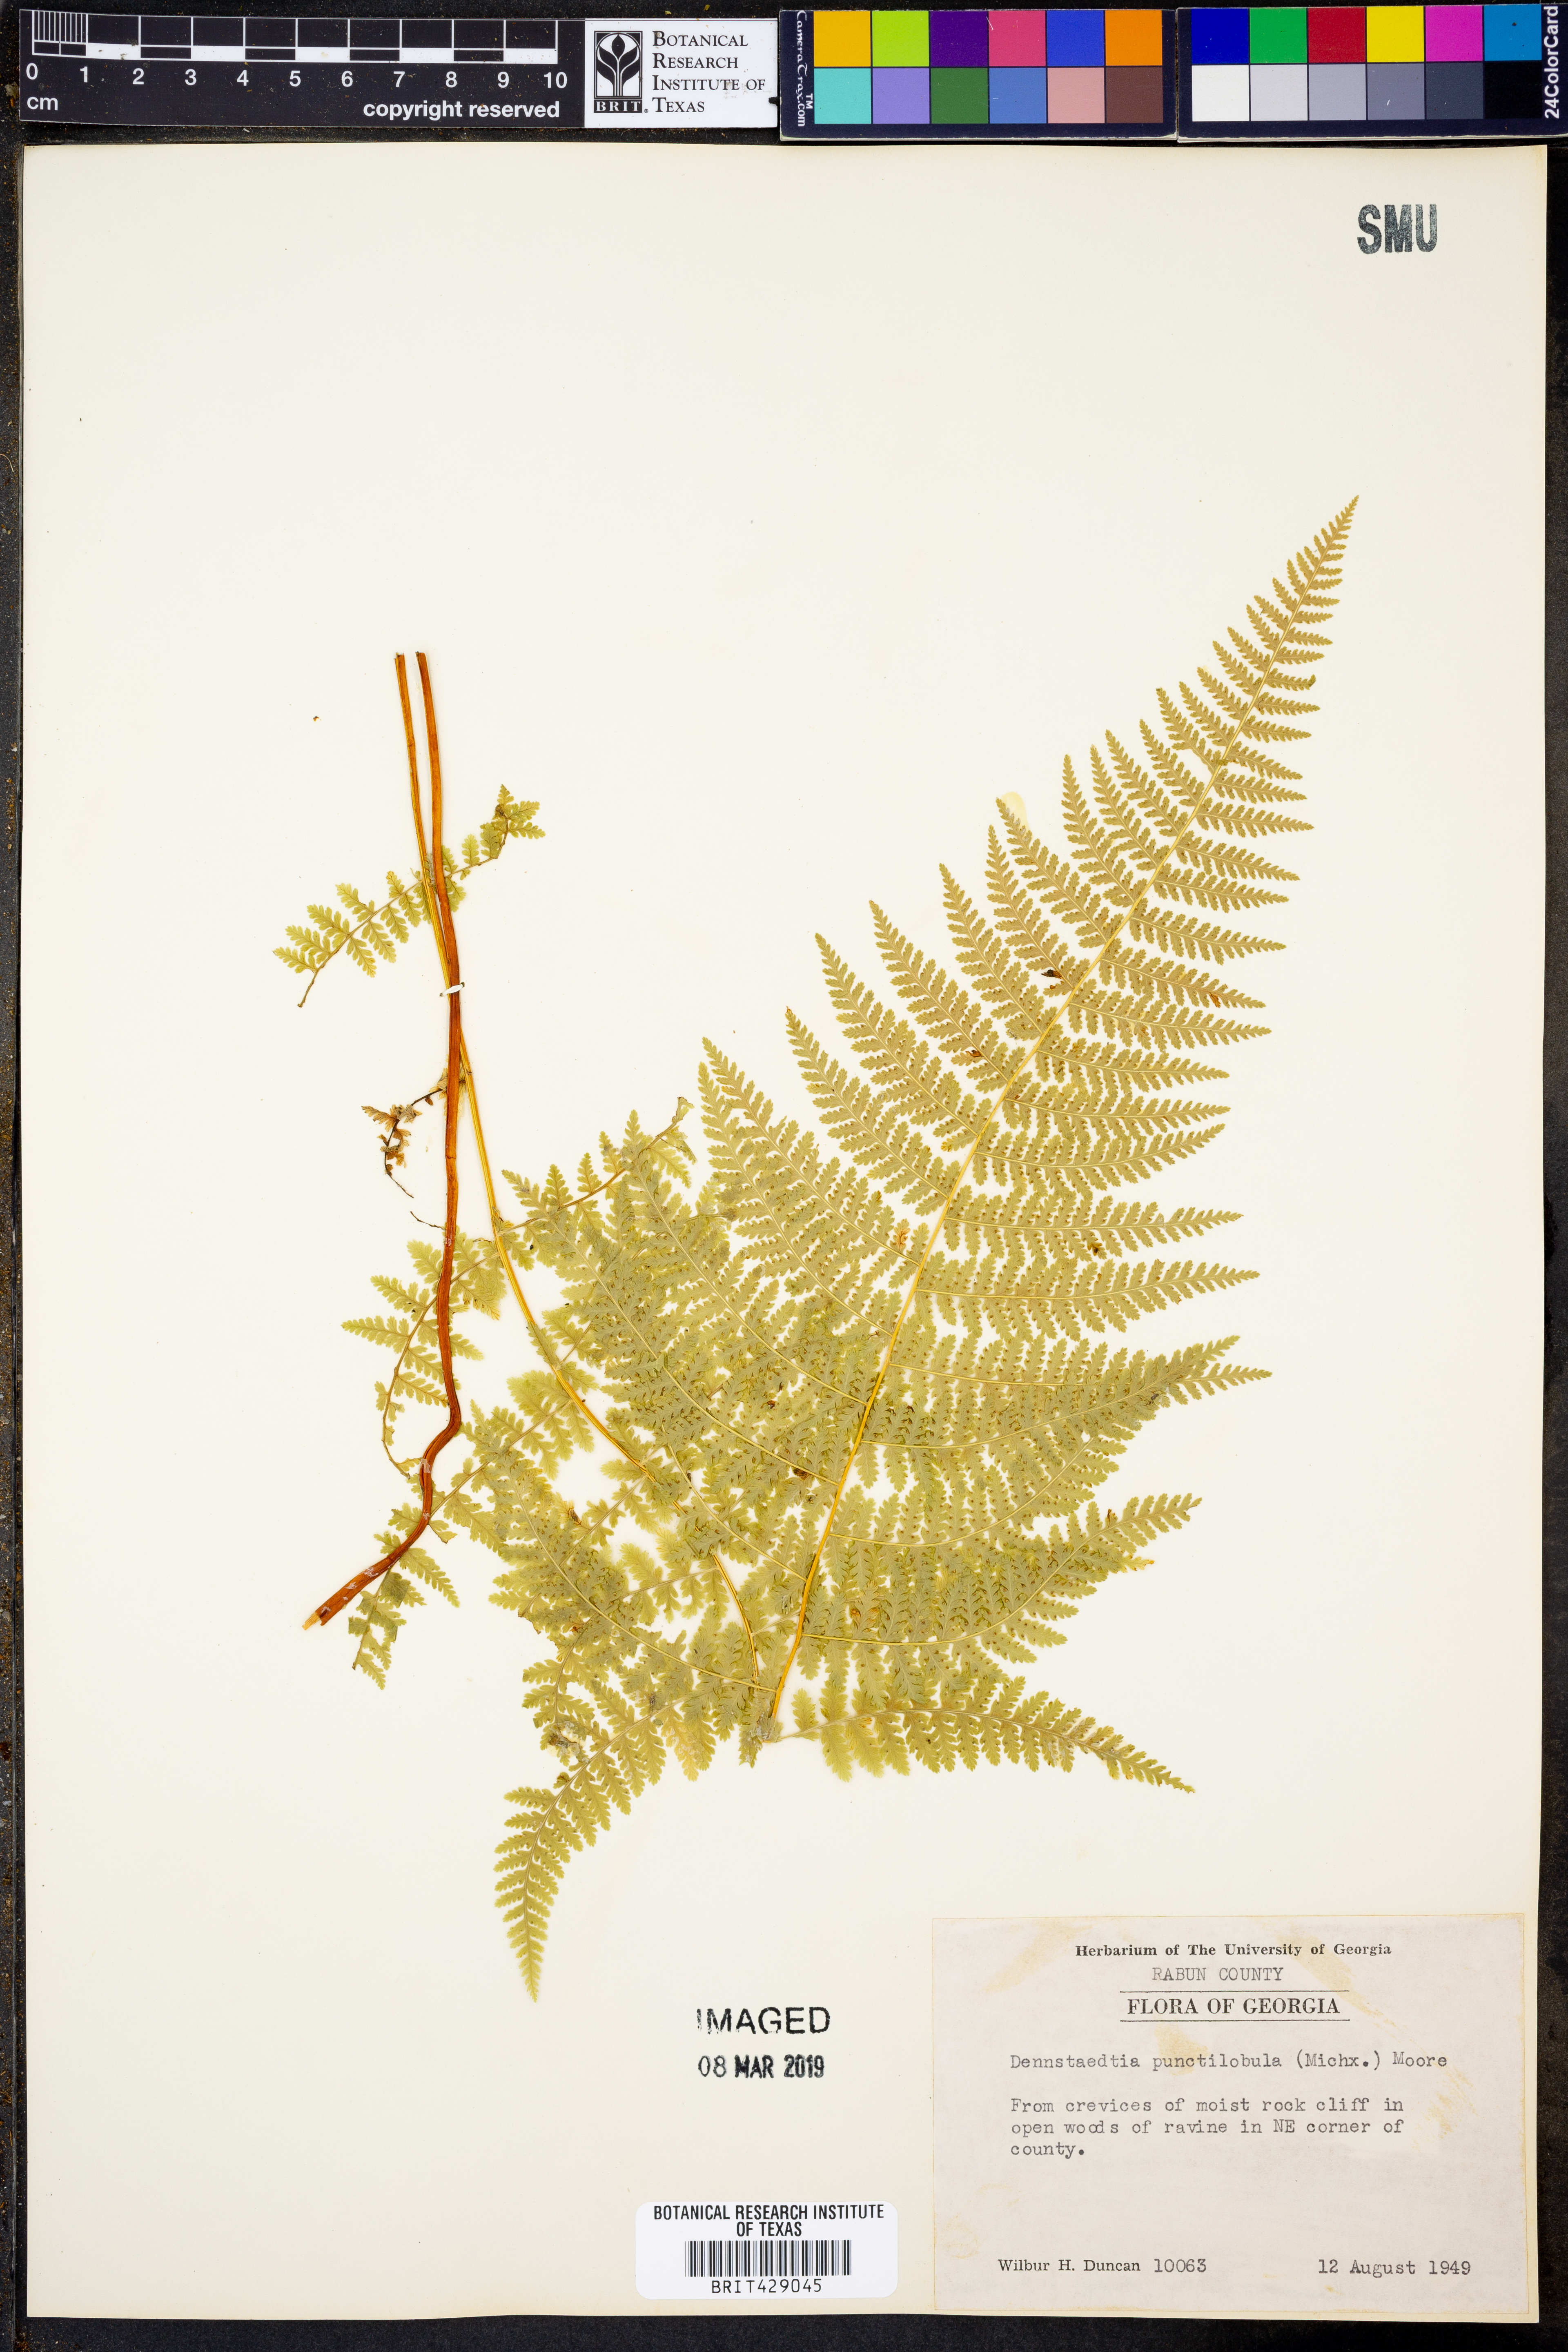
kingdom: Plantae
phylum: Tracheophyta
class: Polypodiopsida
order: Polypodiales
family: Dennstaedtiaceae
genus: Sitobolium
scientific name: Sitobolium punctilobum
